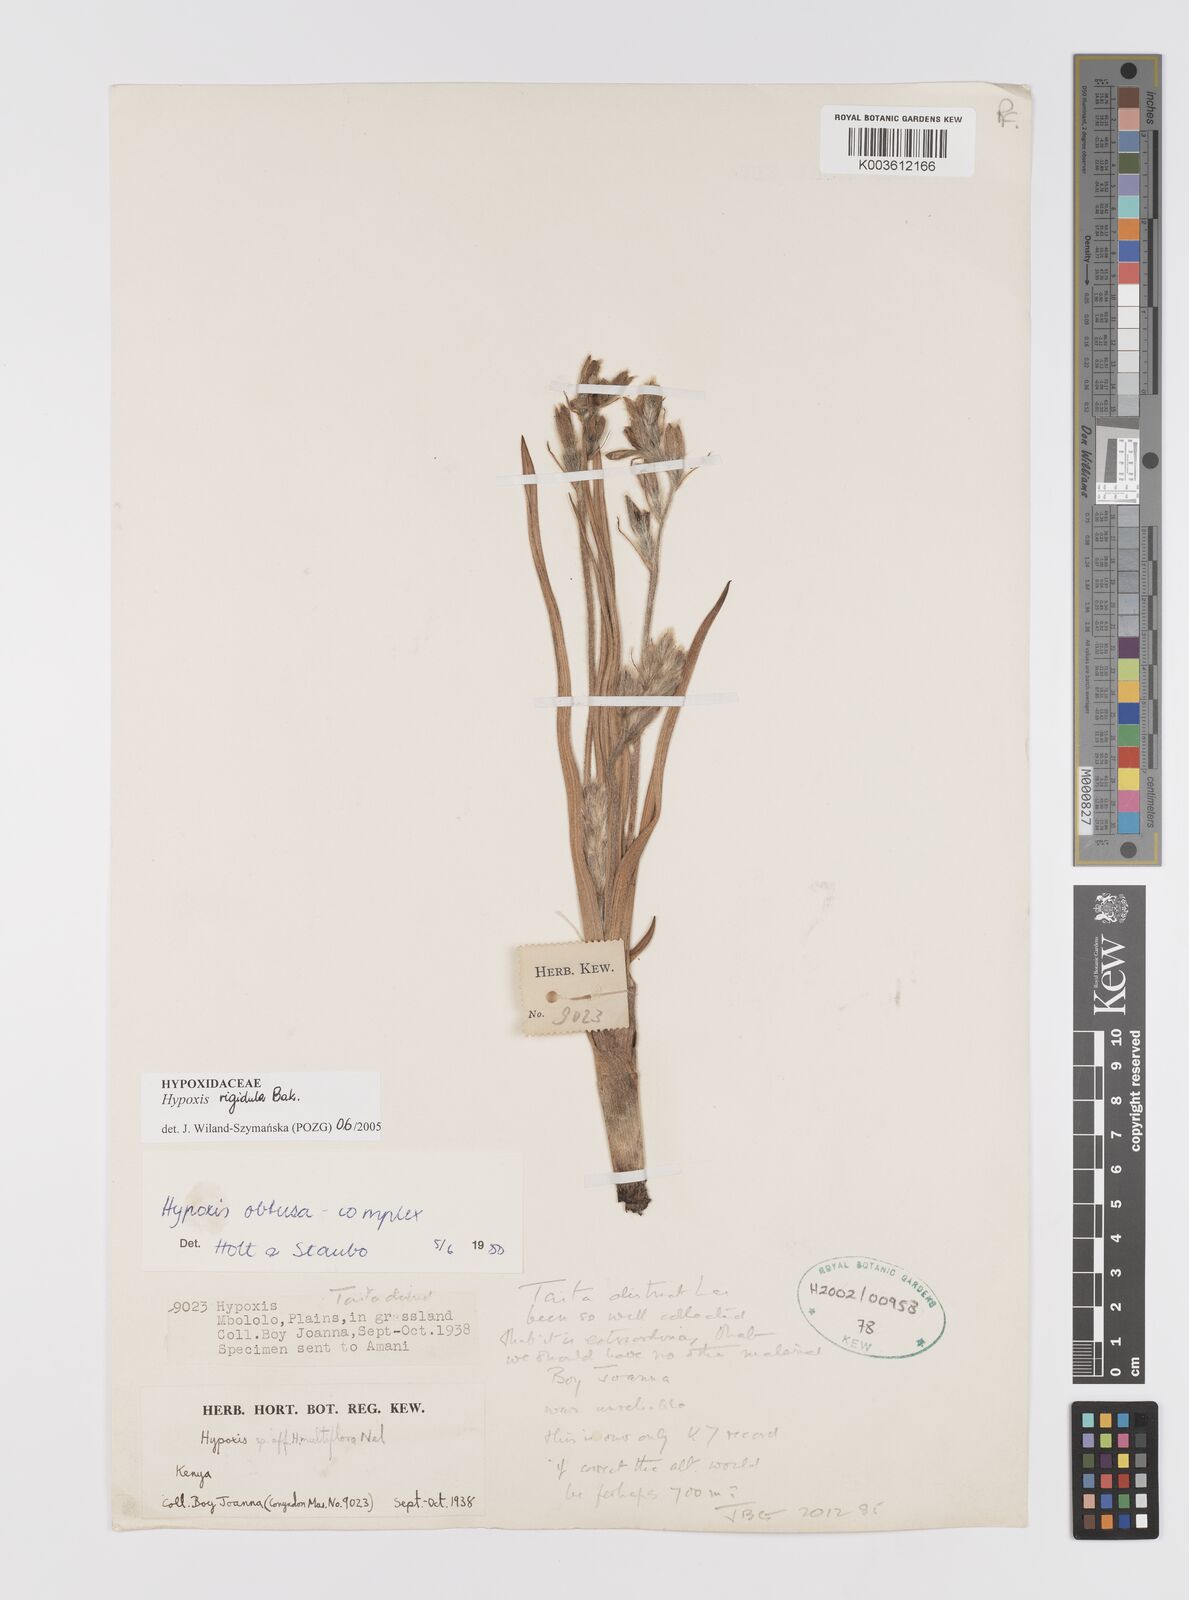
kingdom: Plantae
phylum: Tracheophyta
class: Liliopsida
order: Asparagales
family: Hypoxidaceae
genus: Hypoxis
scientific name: Hypoxis rigidula
